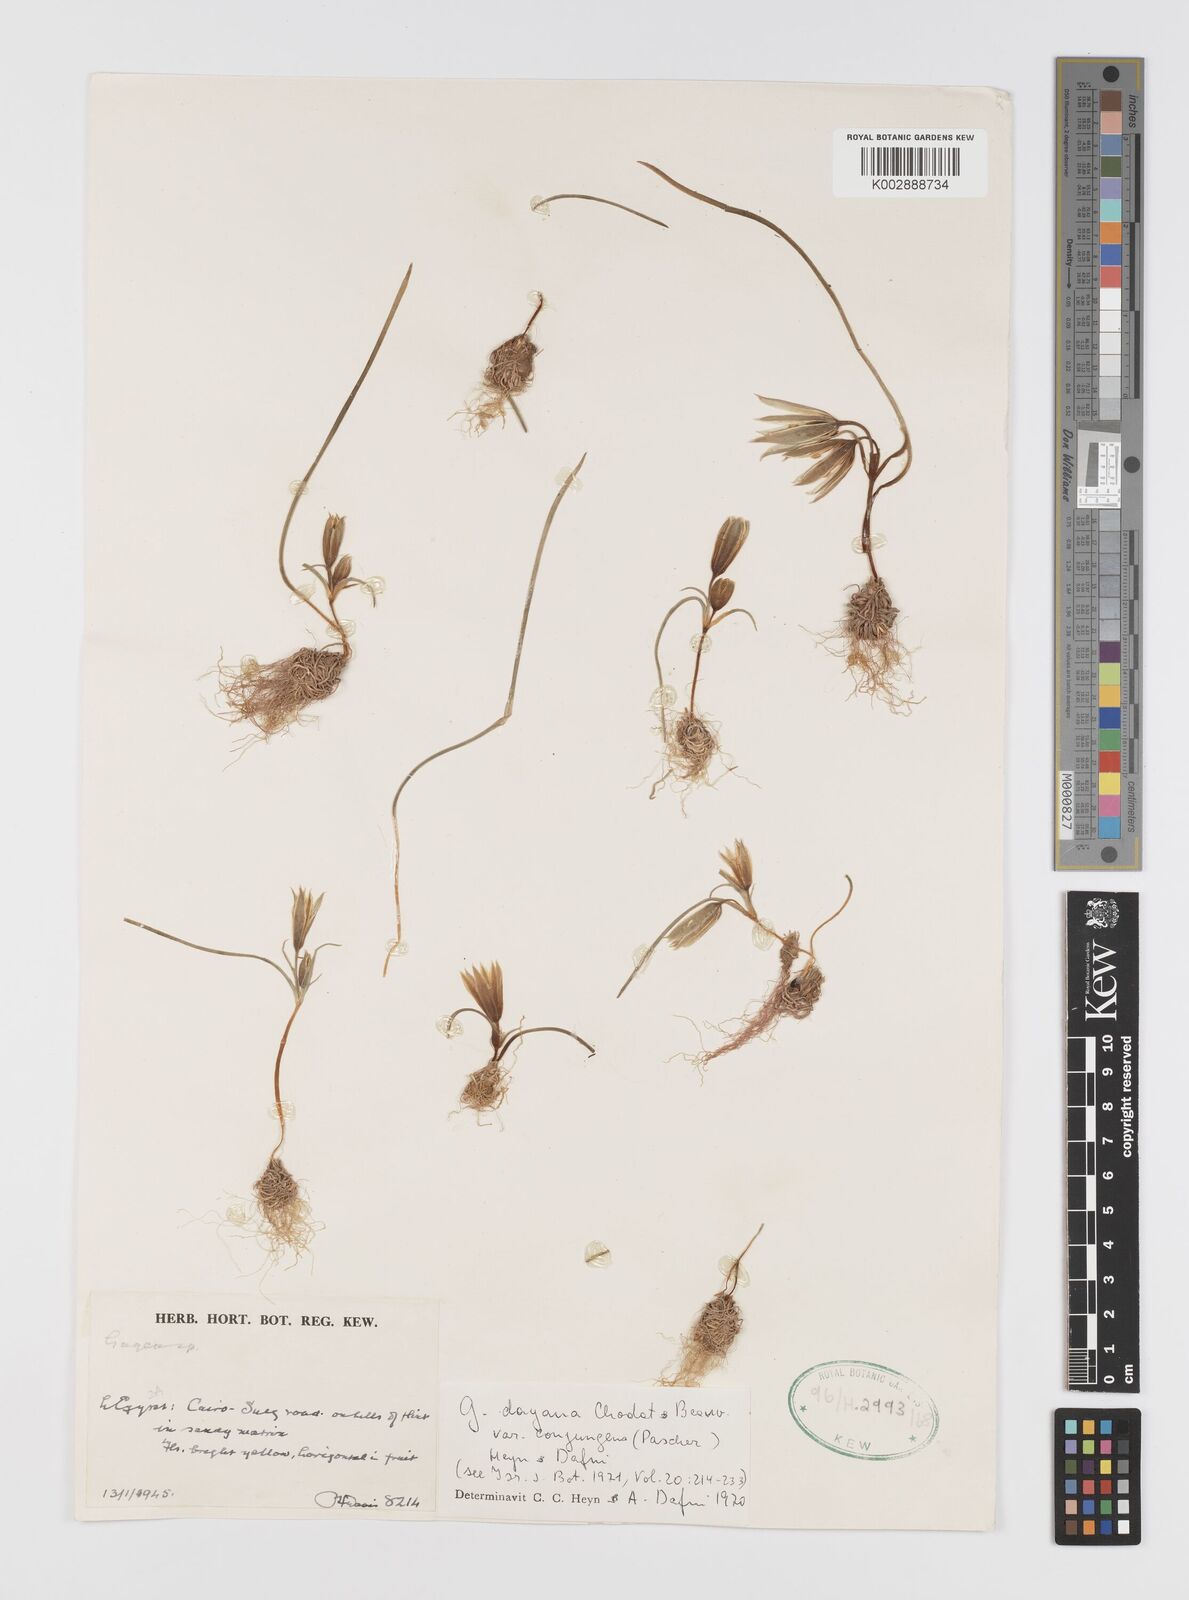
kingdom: Plantae
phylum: Tracheophyta
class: Liliopsida
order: Liliales
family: Liliaceae
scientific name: Liliaceae
